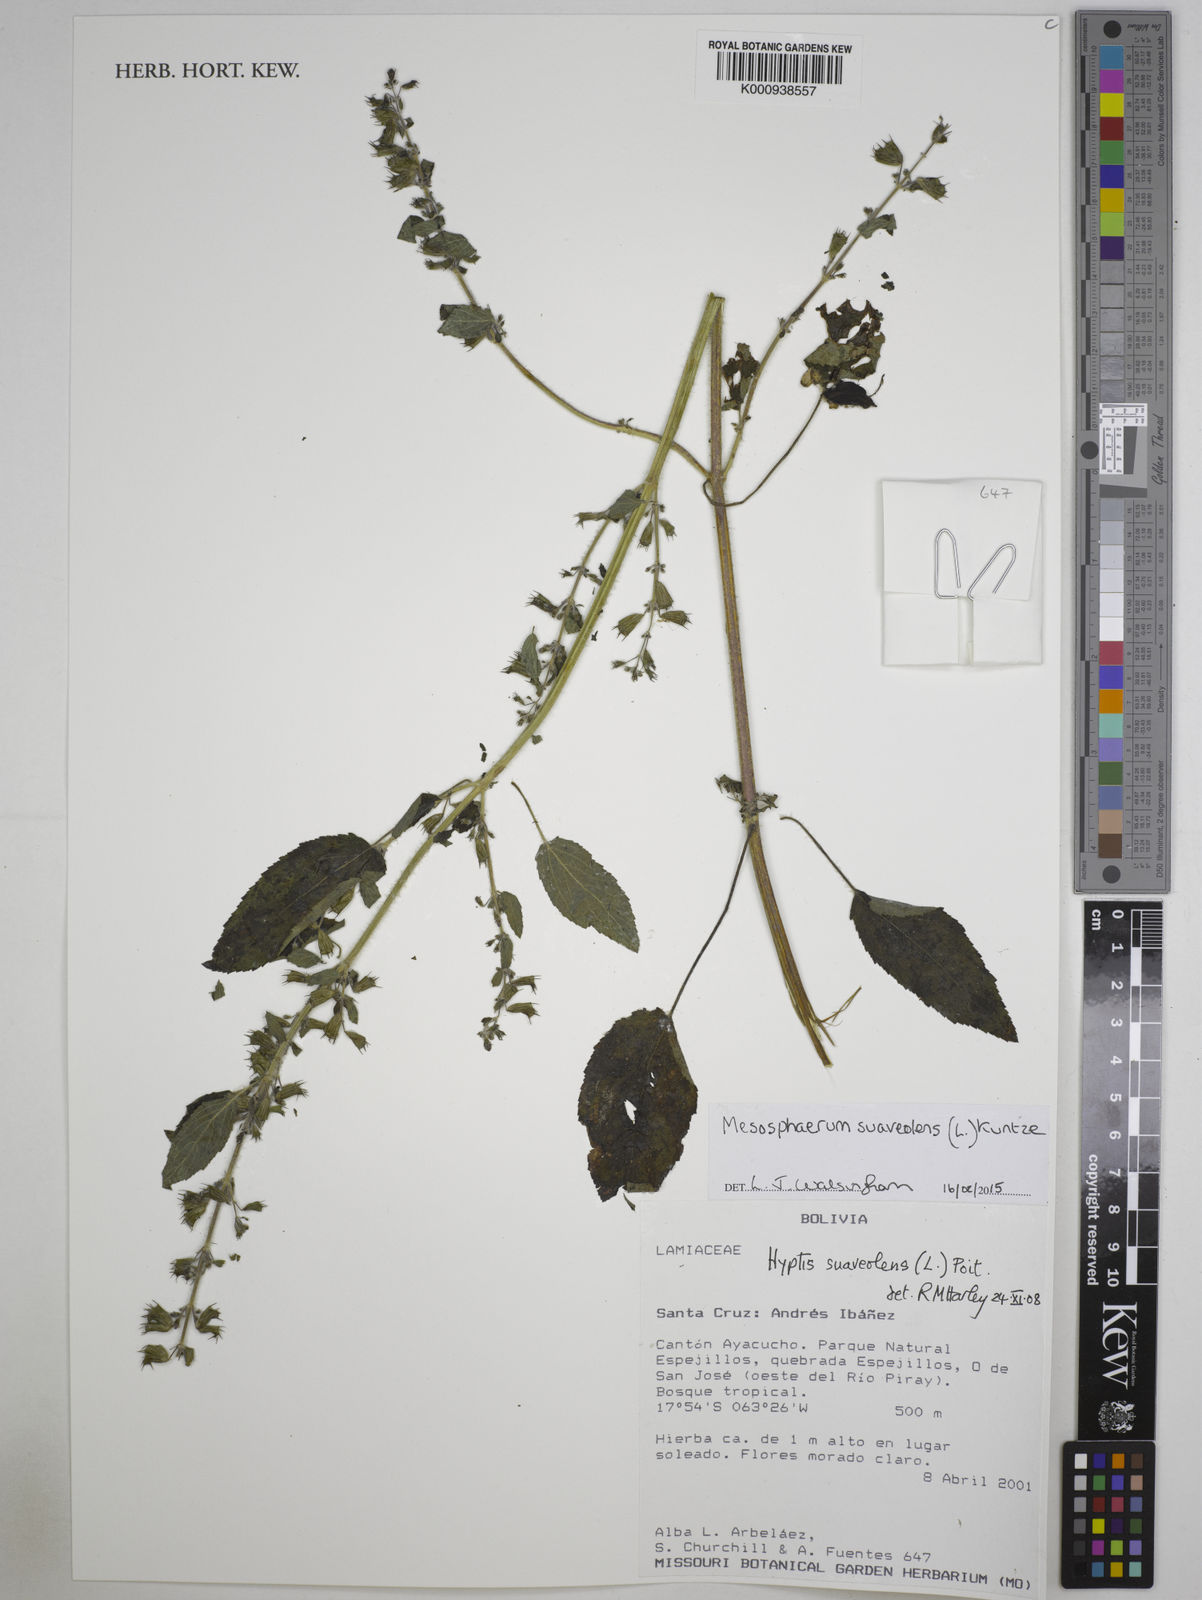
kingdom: Plantae
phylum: Tracheophyta
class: Magnoliopsida
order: Lamiales
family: Lamiaceae
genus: Mesosphaerum
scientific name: Mesosphaerum suaveolens
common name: Pignut
